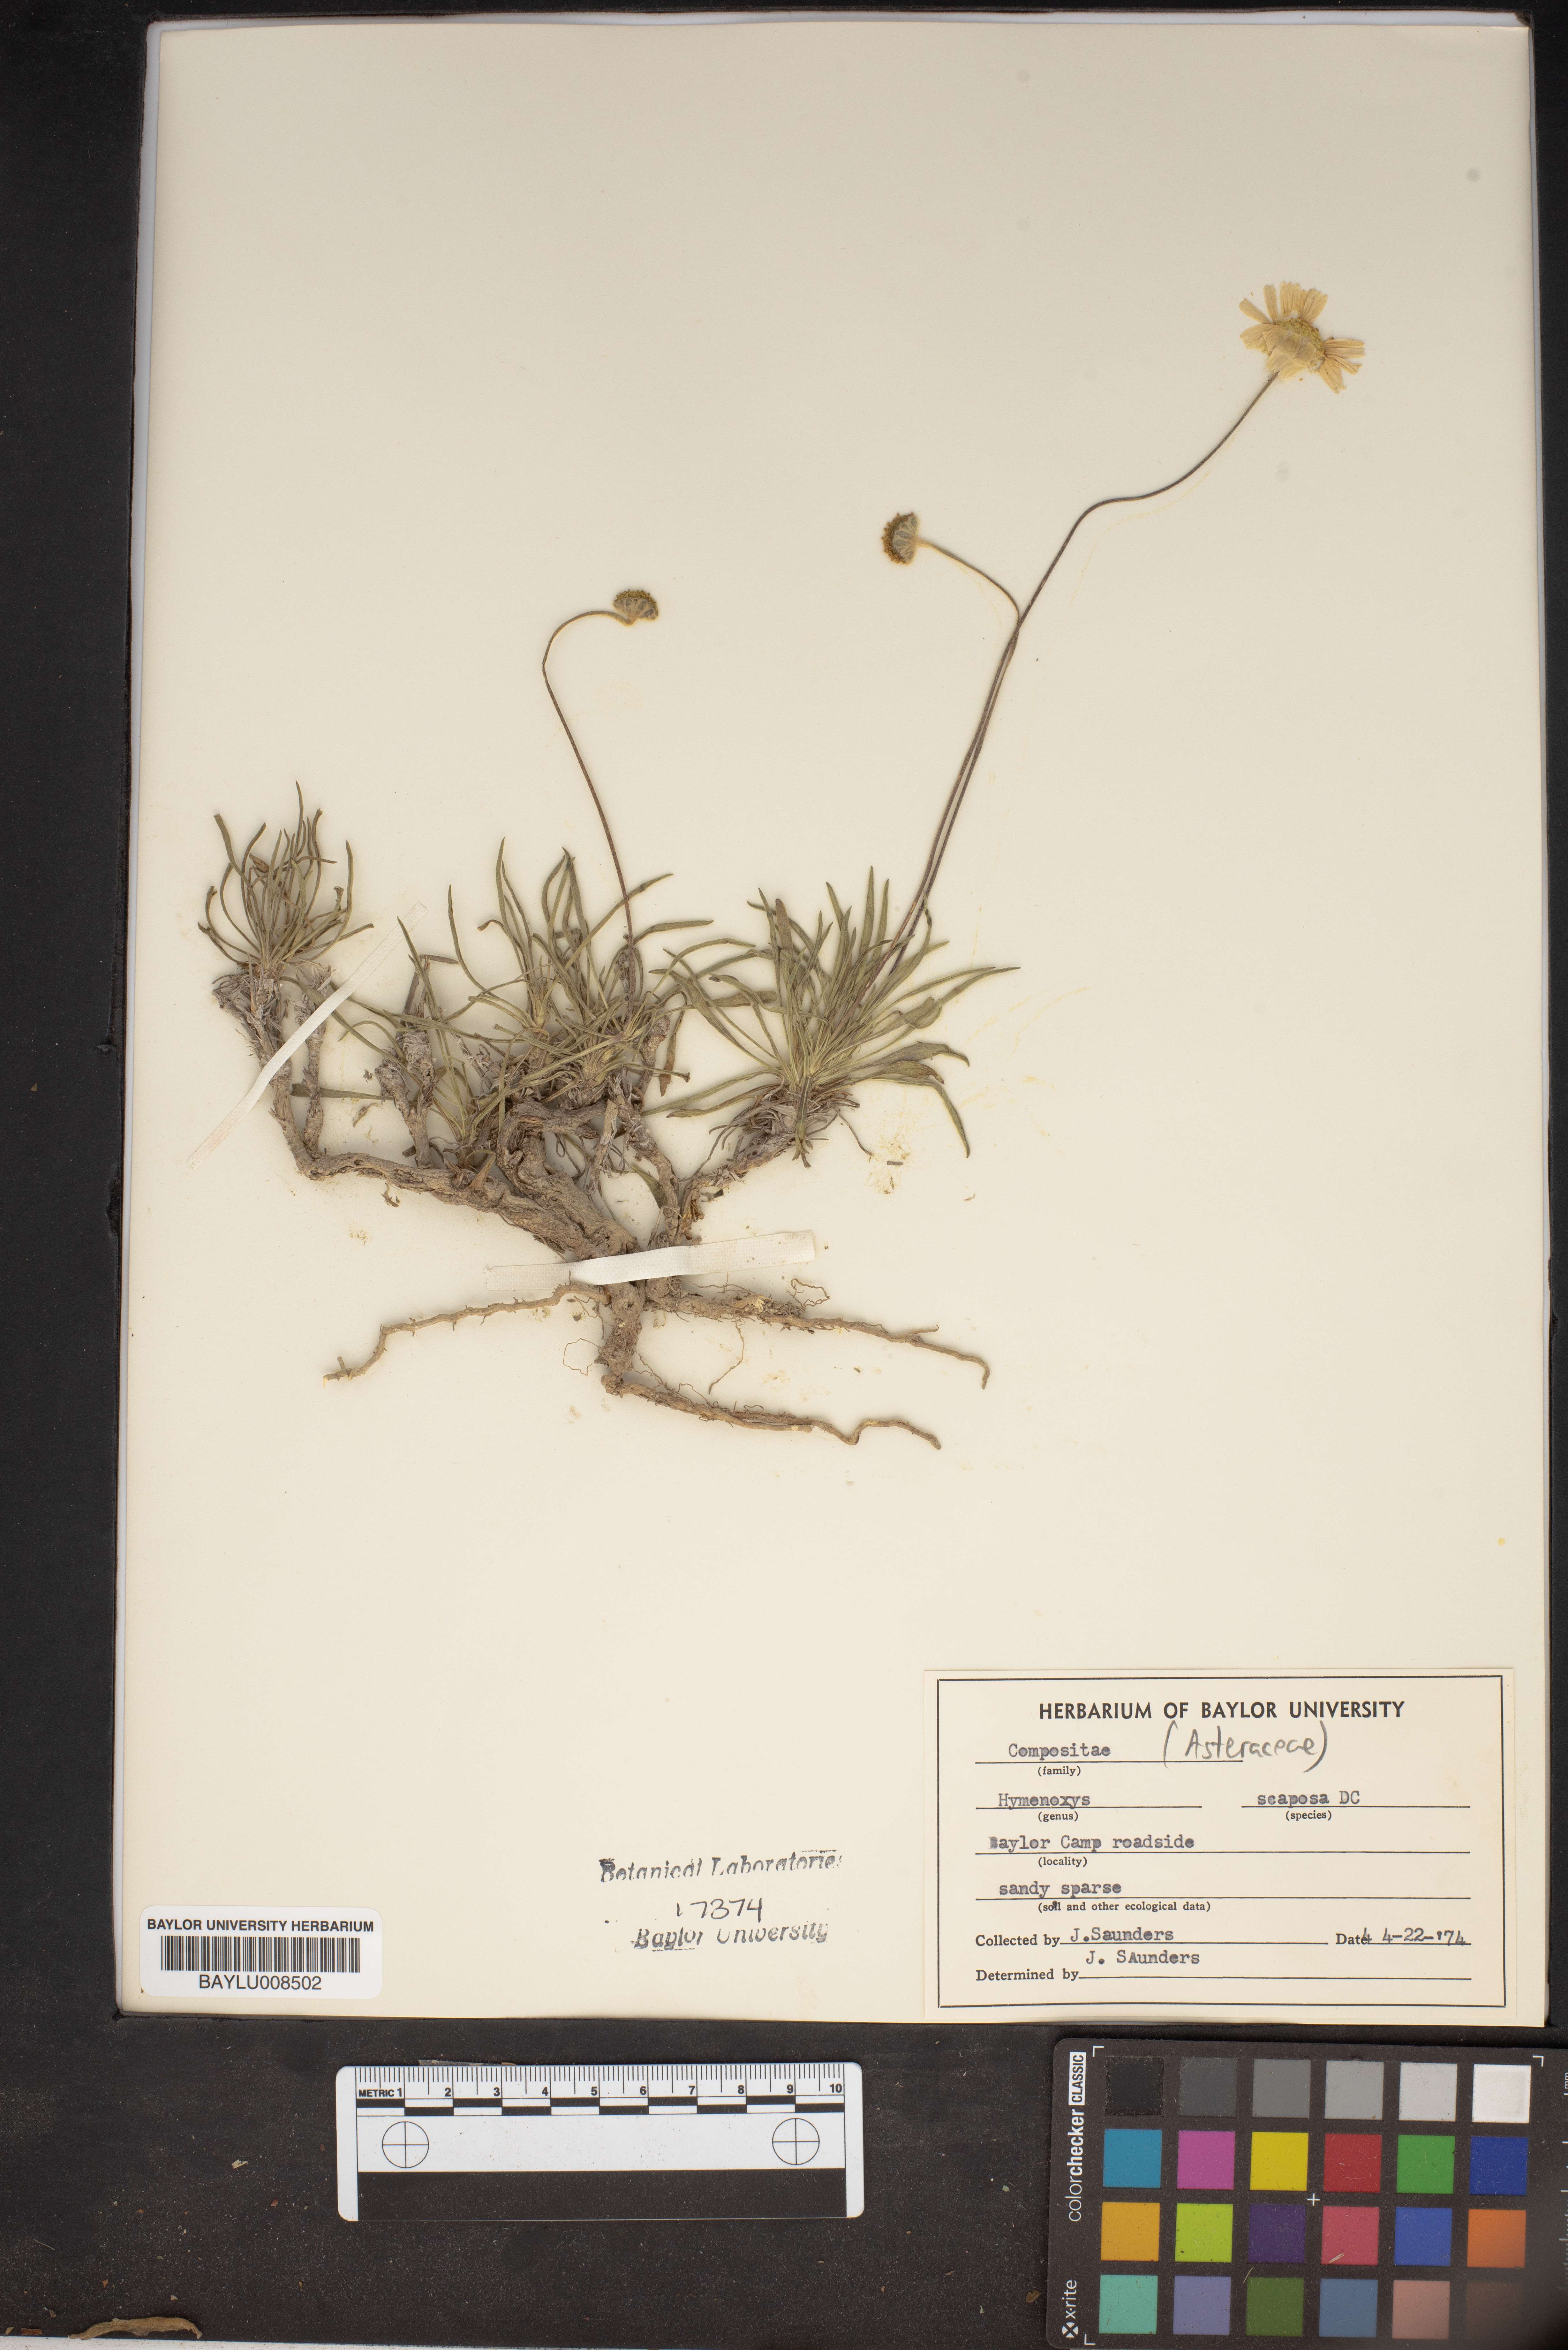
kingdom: Plantae
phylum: Tracheophyta
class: Magnoliopsida
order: Asterales
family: Asteraceae
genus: Tetraneuris
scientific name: Tetraneuris scaposa
